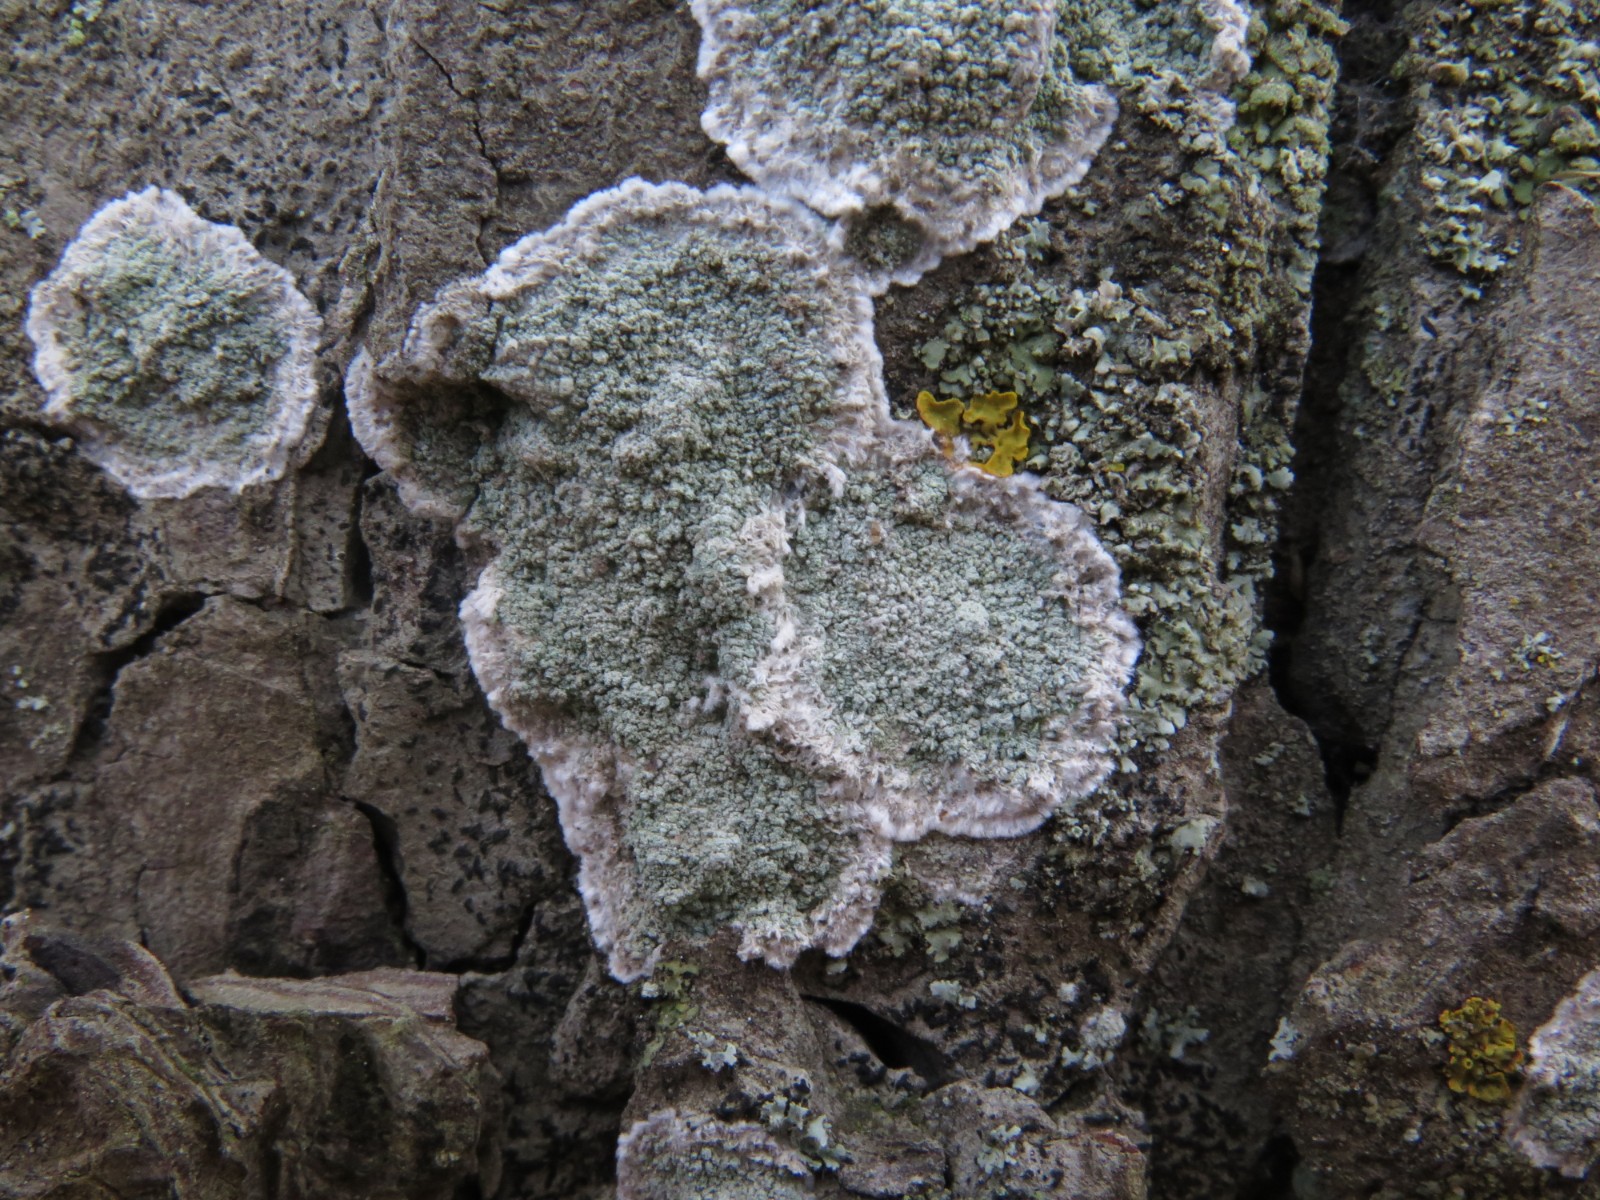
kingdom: Fungi
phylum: Ascomycota
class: Lecanoromycetes
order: Lecanorales
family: Haematommataceae
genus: Haematomma
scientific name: Haematomma ochroleucum
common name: gul trådkantlav
